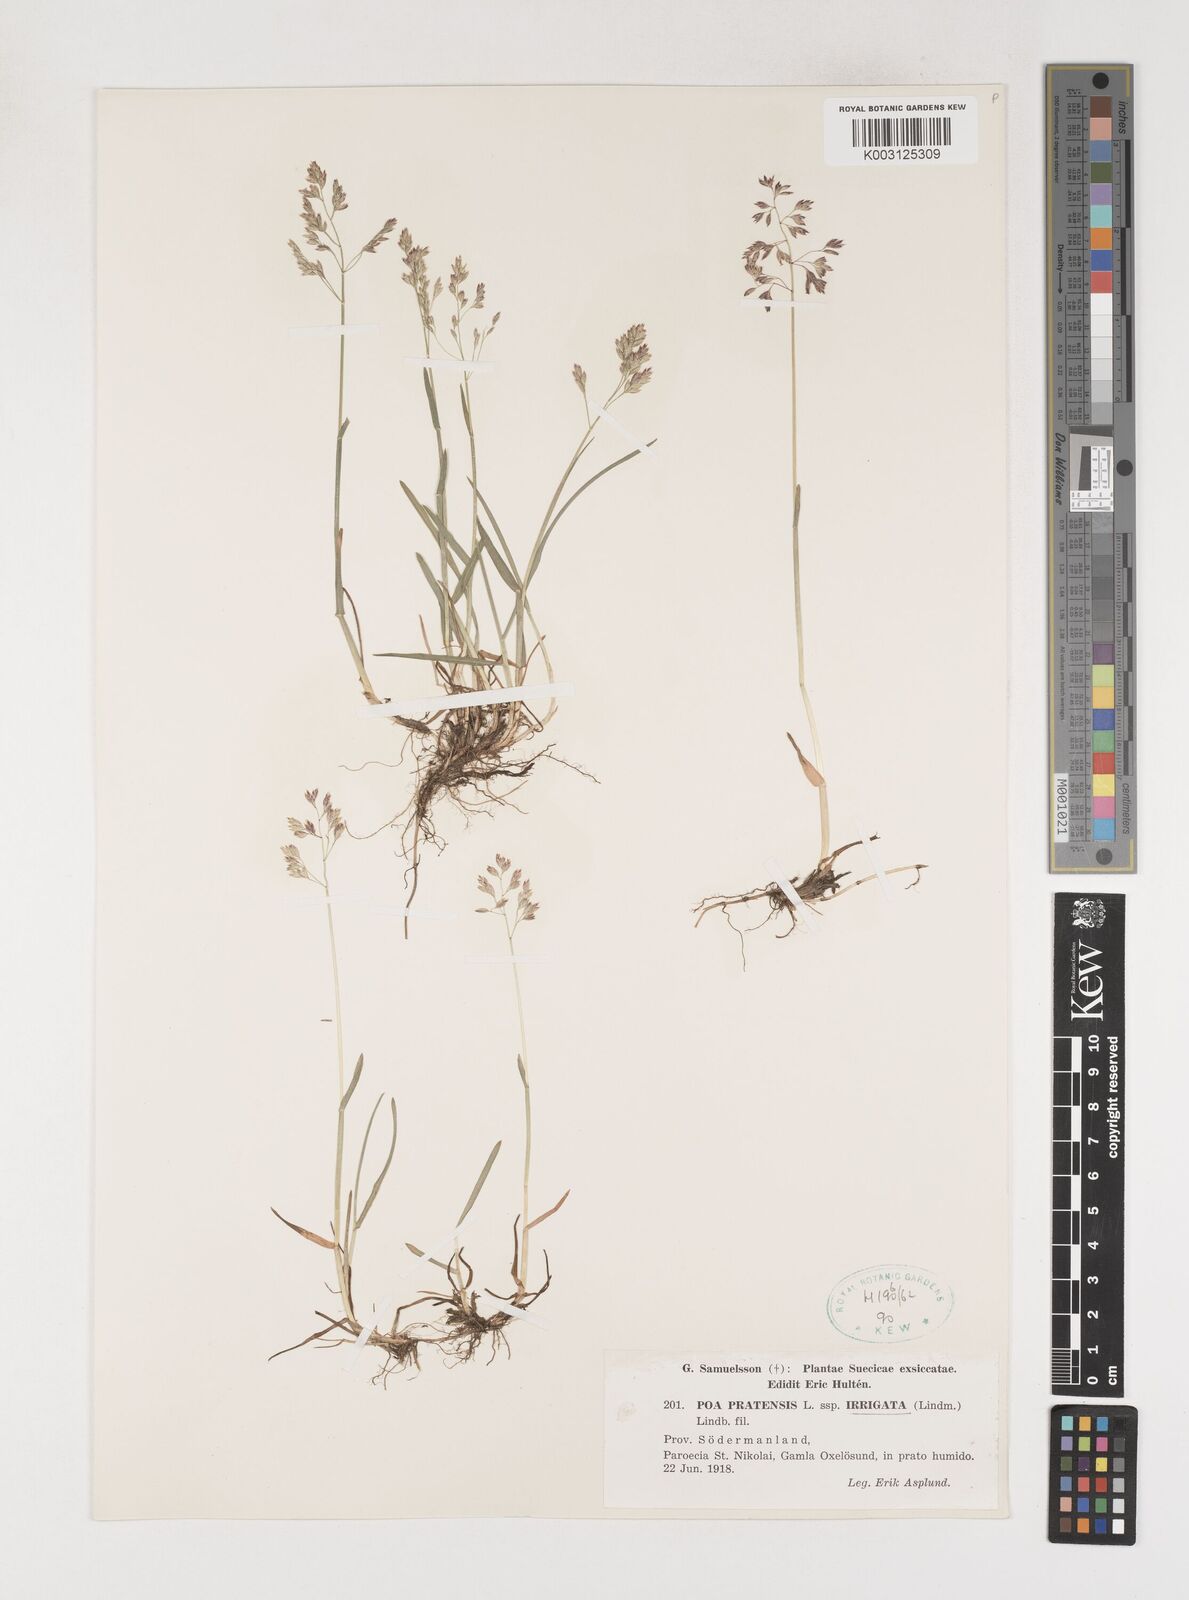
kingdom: Plantae
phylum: Tracheophyta
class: Liliopsida
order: Poales
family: Poaceae
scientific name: Poaceae
